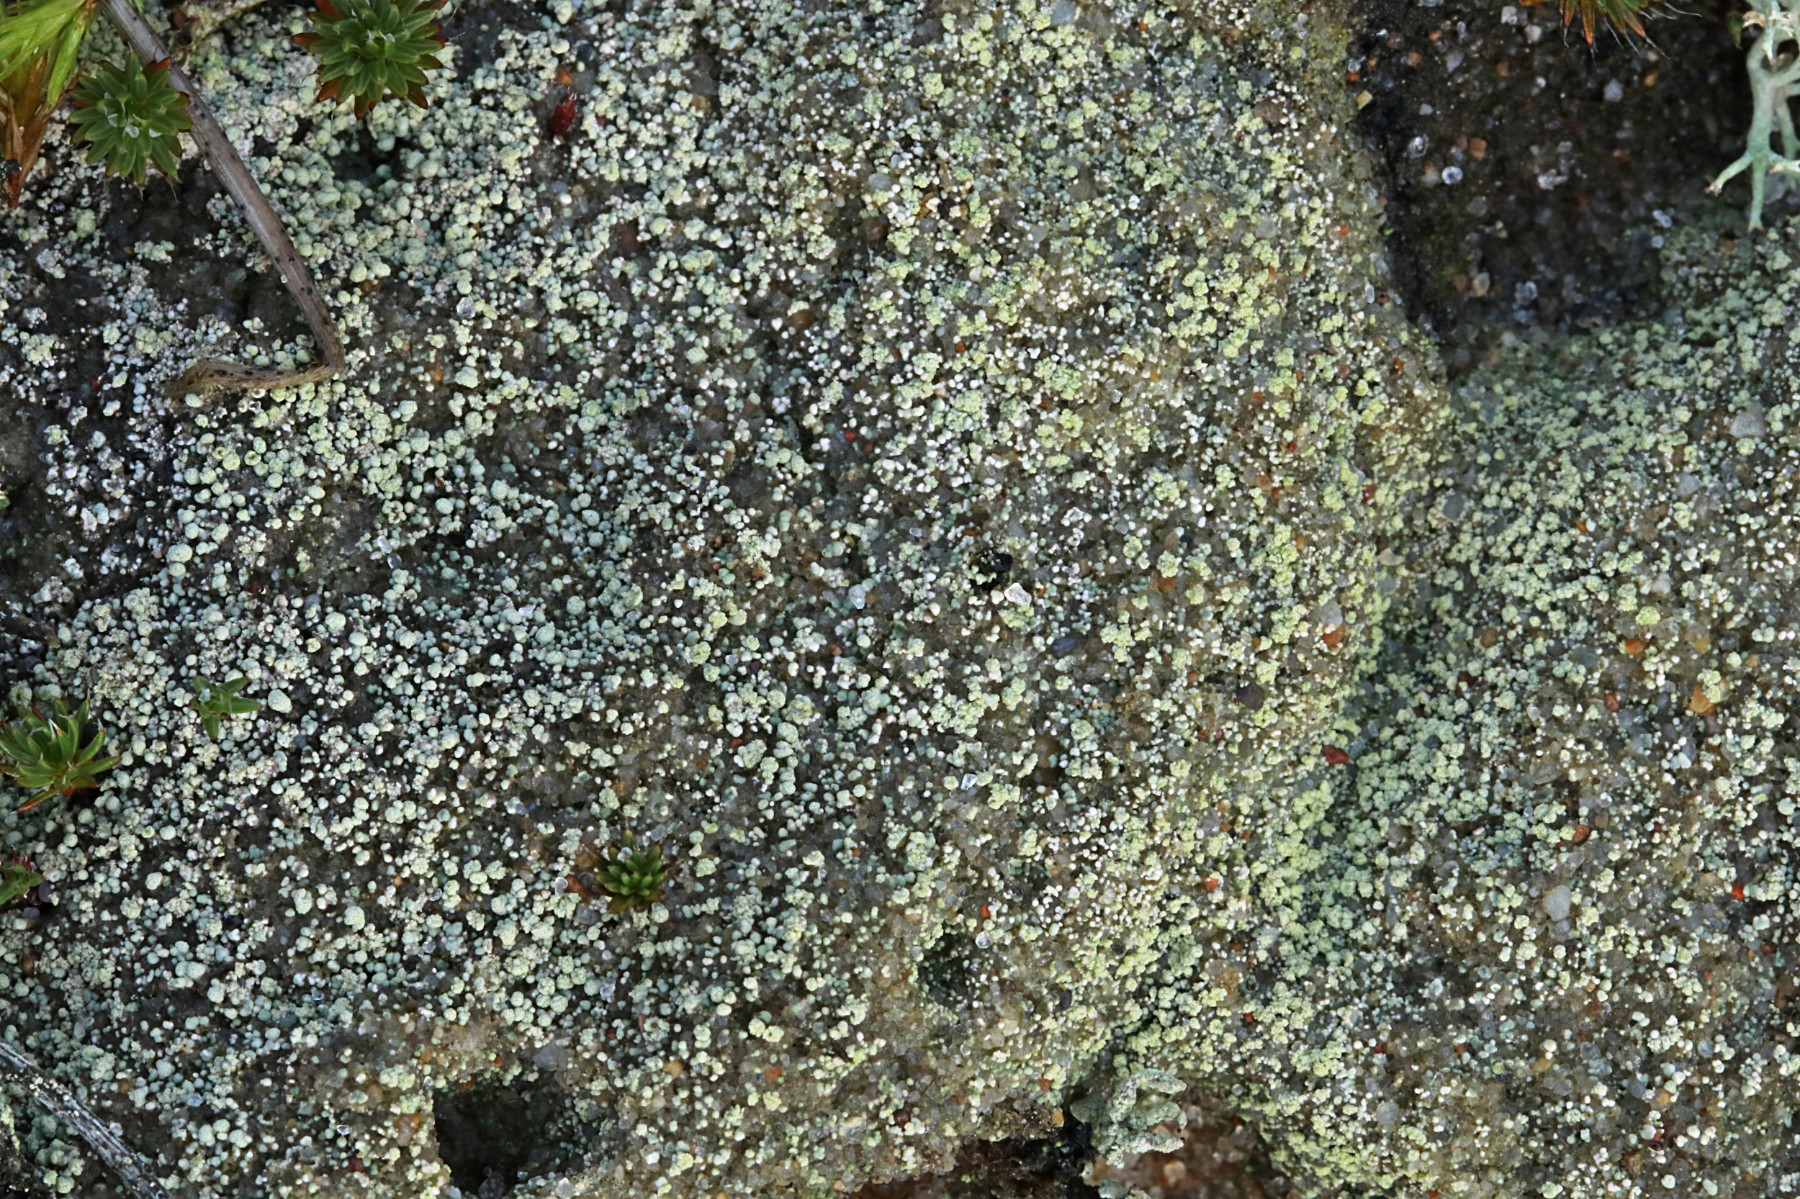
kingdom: Fungi
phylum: Ascomycota
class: Lecanoromycetes
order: Baeomycetales
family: Trapeliaceae
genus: Trapeliopsis
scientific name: Trapeliopsis granulosa
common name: forskelligfarvet skivelav
